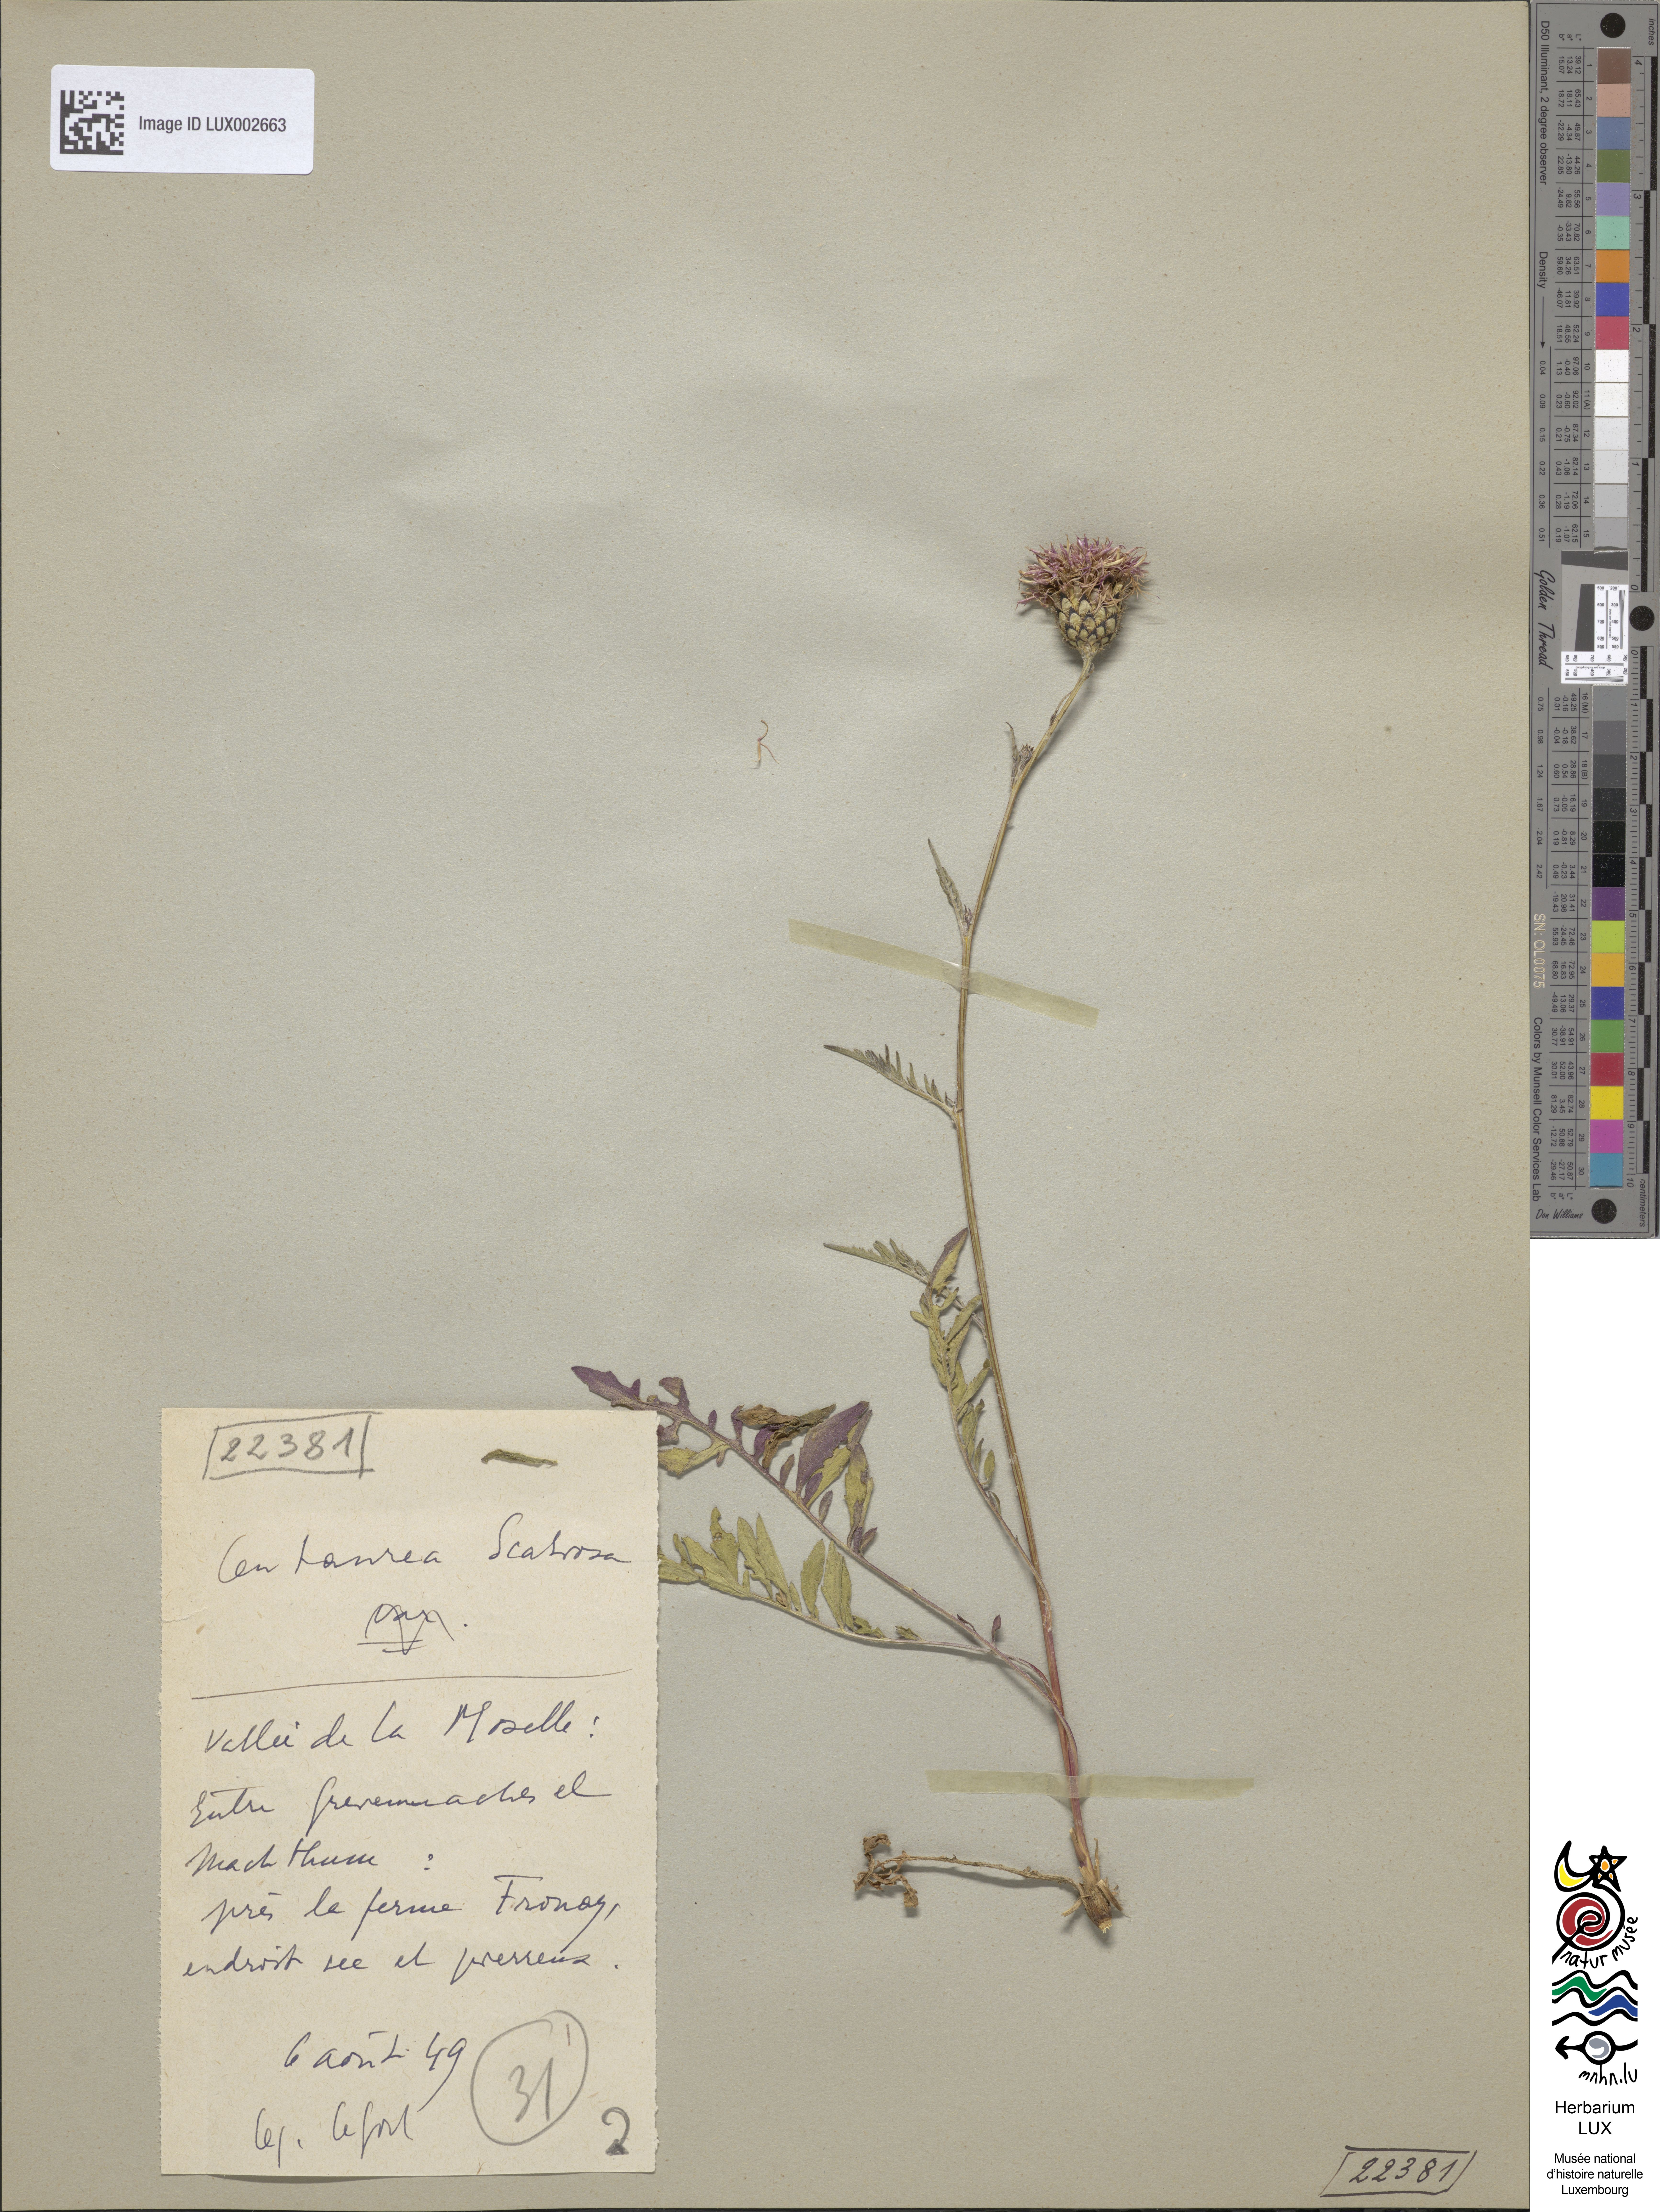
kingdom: Plantae
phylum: Tracheophyta
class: Magnoliopsida
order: Asterales
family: Asteraceae
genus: Centaurea
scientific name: Centaurea scabiosa
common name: Greater knapweed
